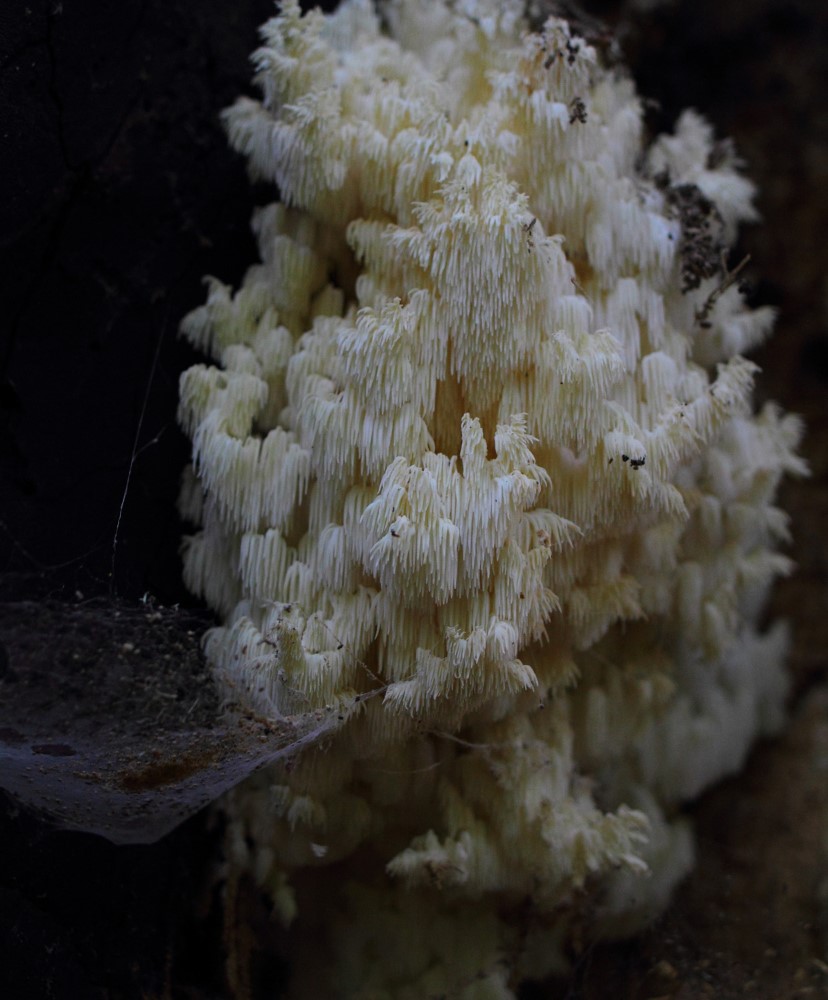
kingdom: Fungi
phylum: Basidiomycota
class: Agaricomycetes
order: Russulales
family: Hericiaceae
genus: Hericium
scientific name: Hericium coralloides
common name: koralpigsvamp
